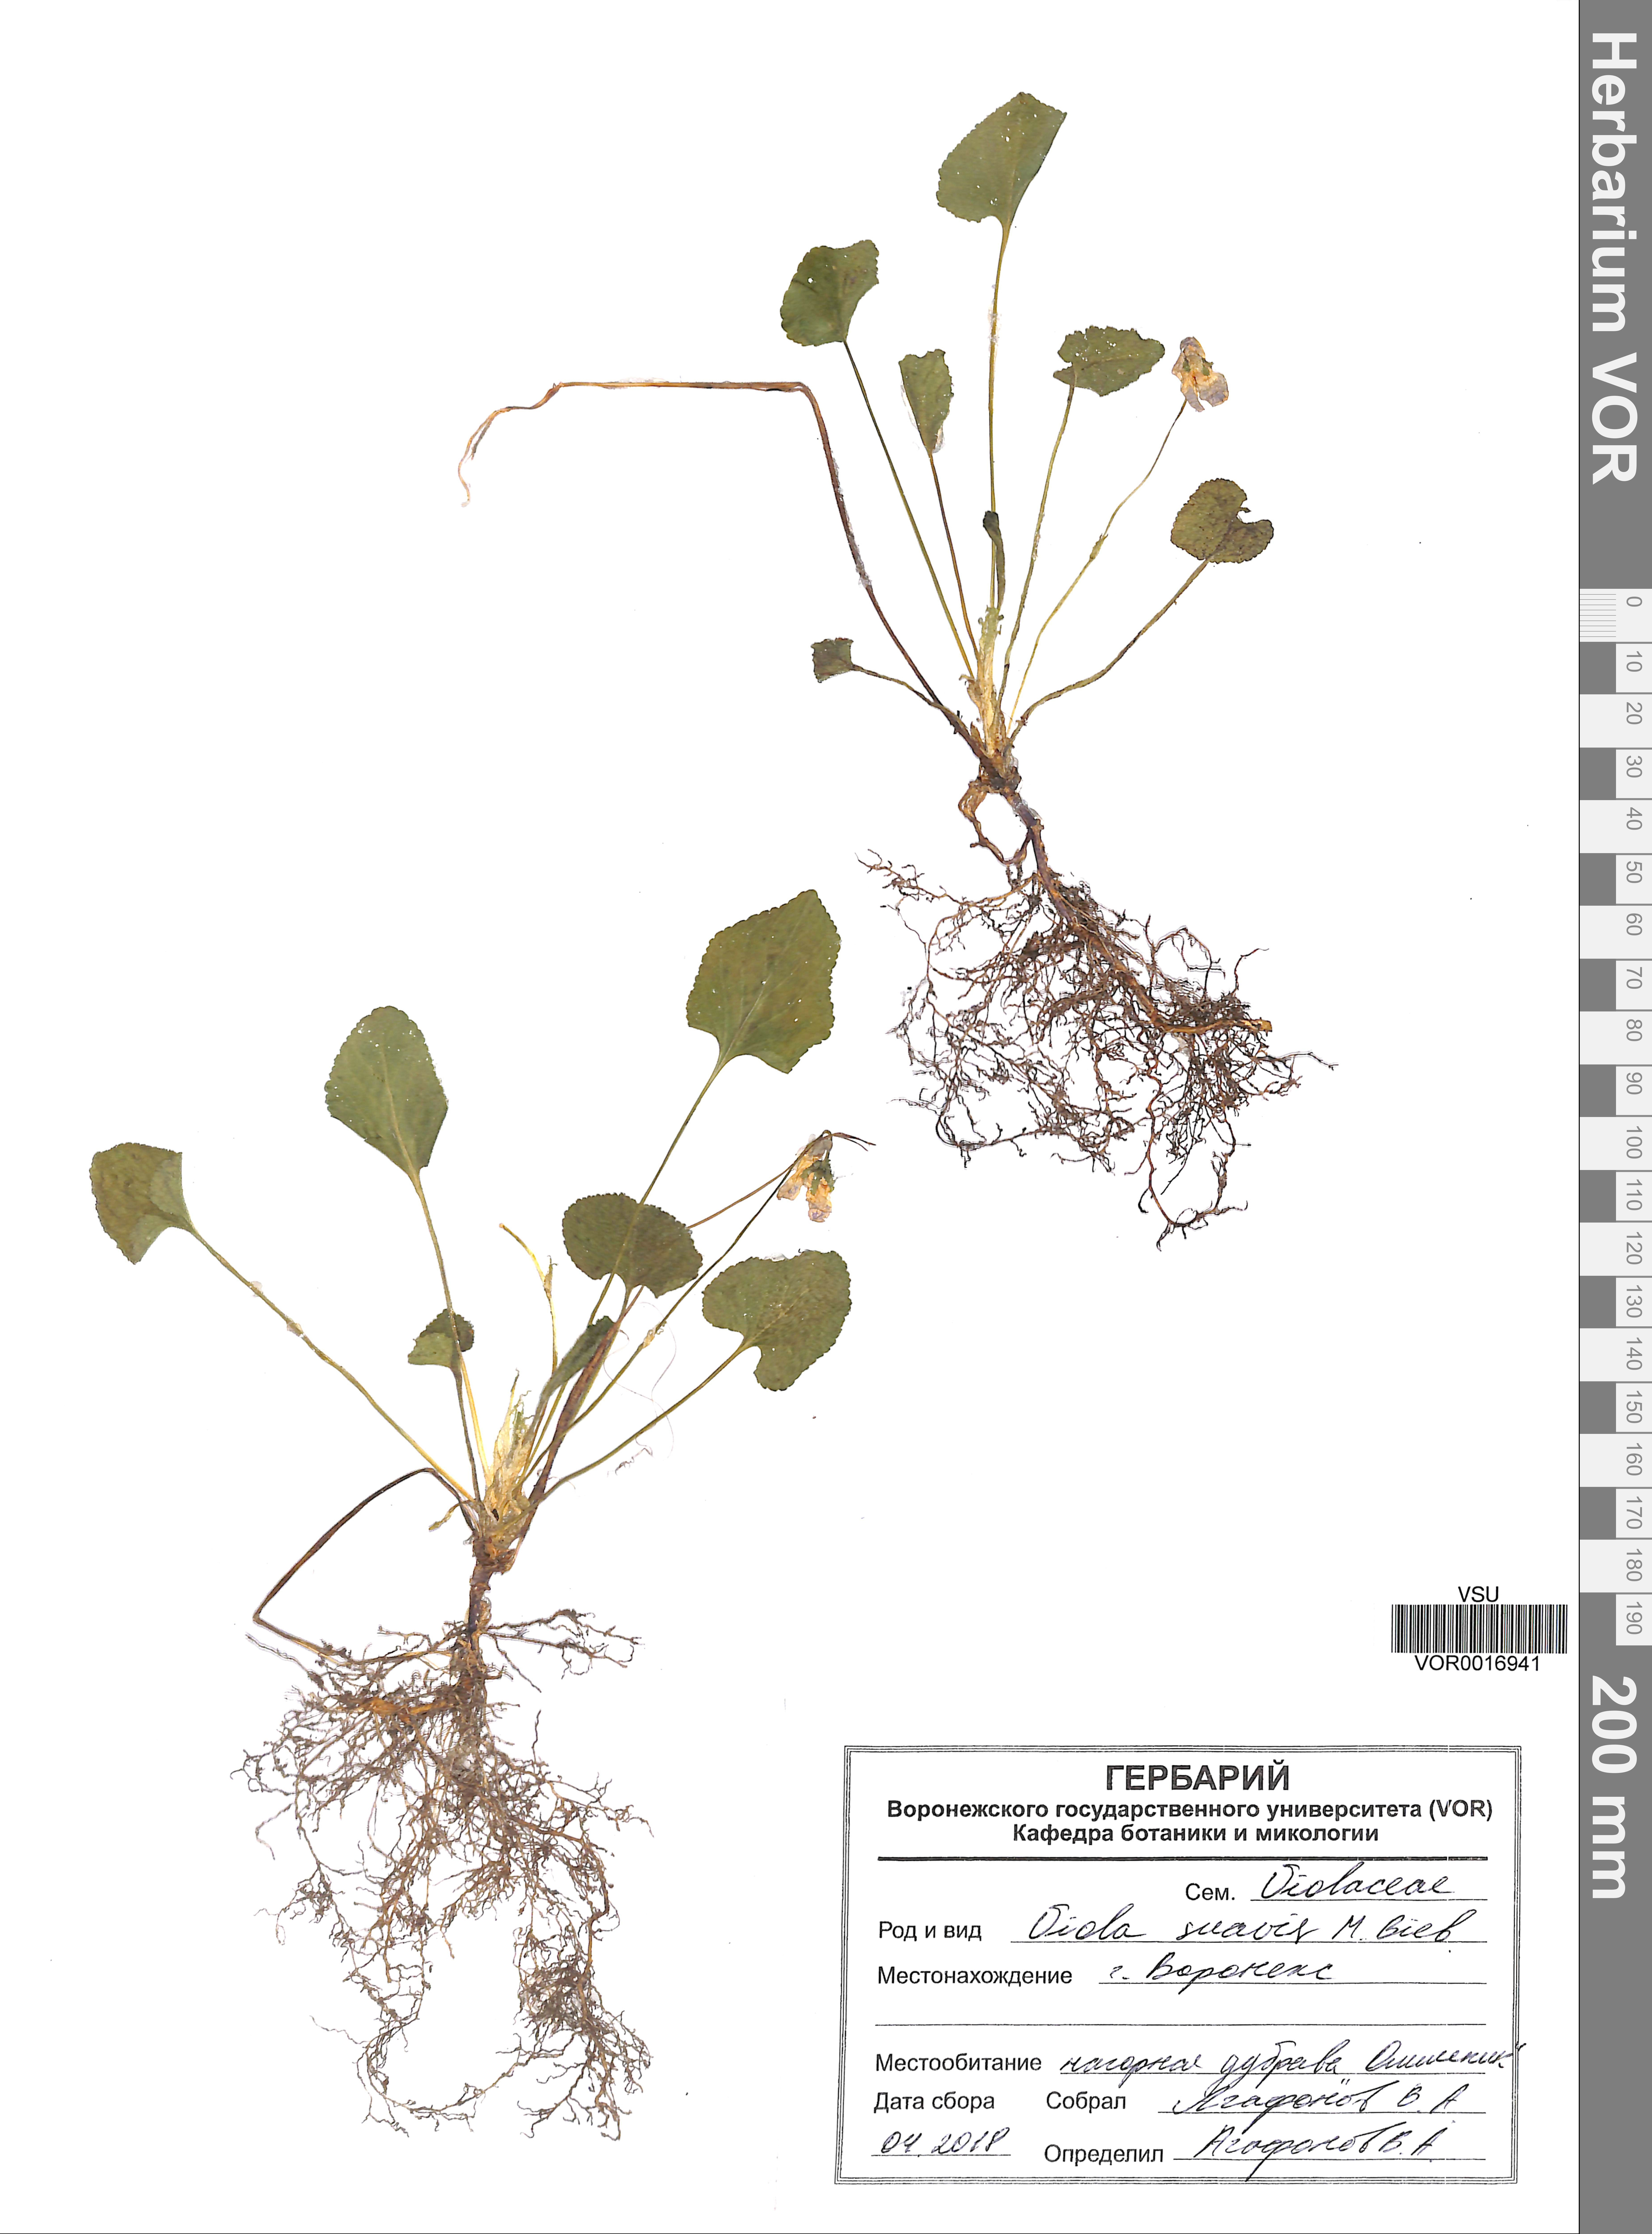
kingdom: Plantae
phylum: Tracheophyta
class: Magnoliopsida
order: Malpighiales
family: Violaceae
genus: Viola
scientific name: Viola suavis
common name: Russian violet
